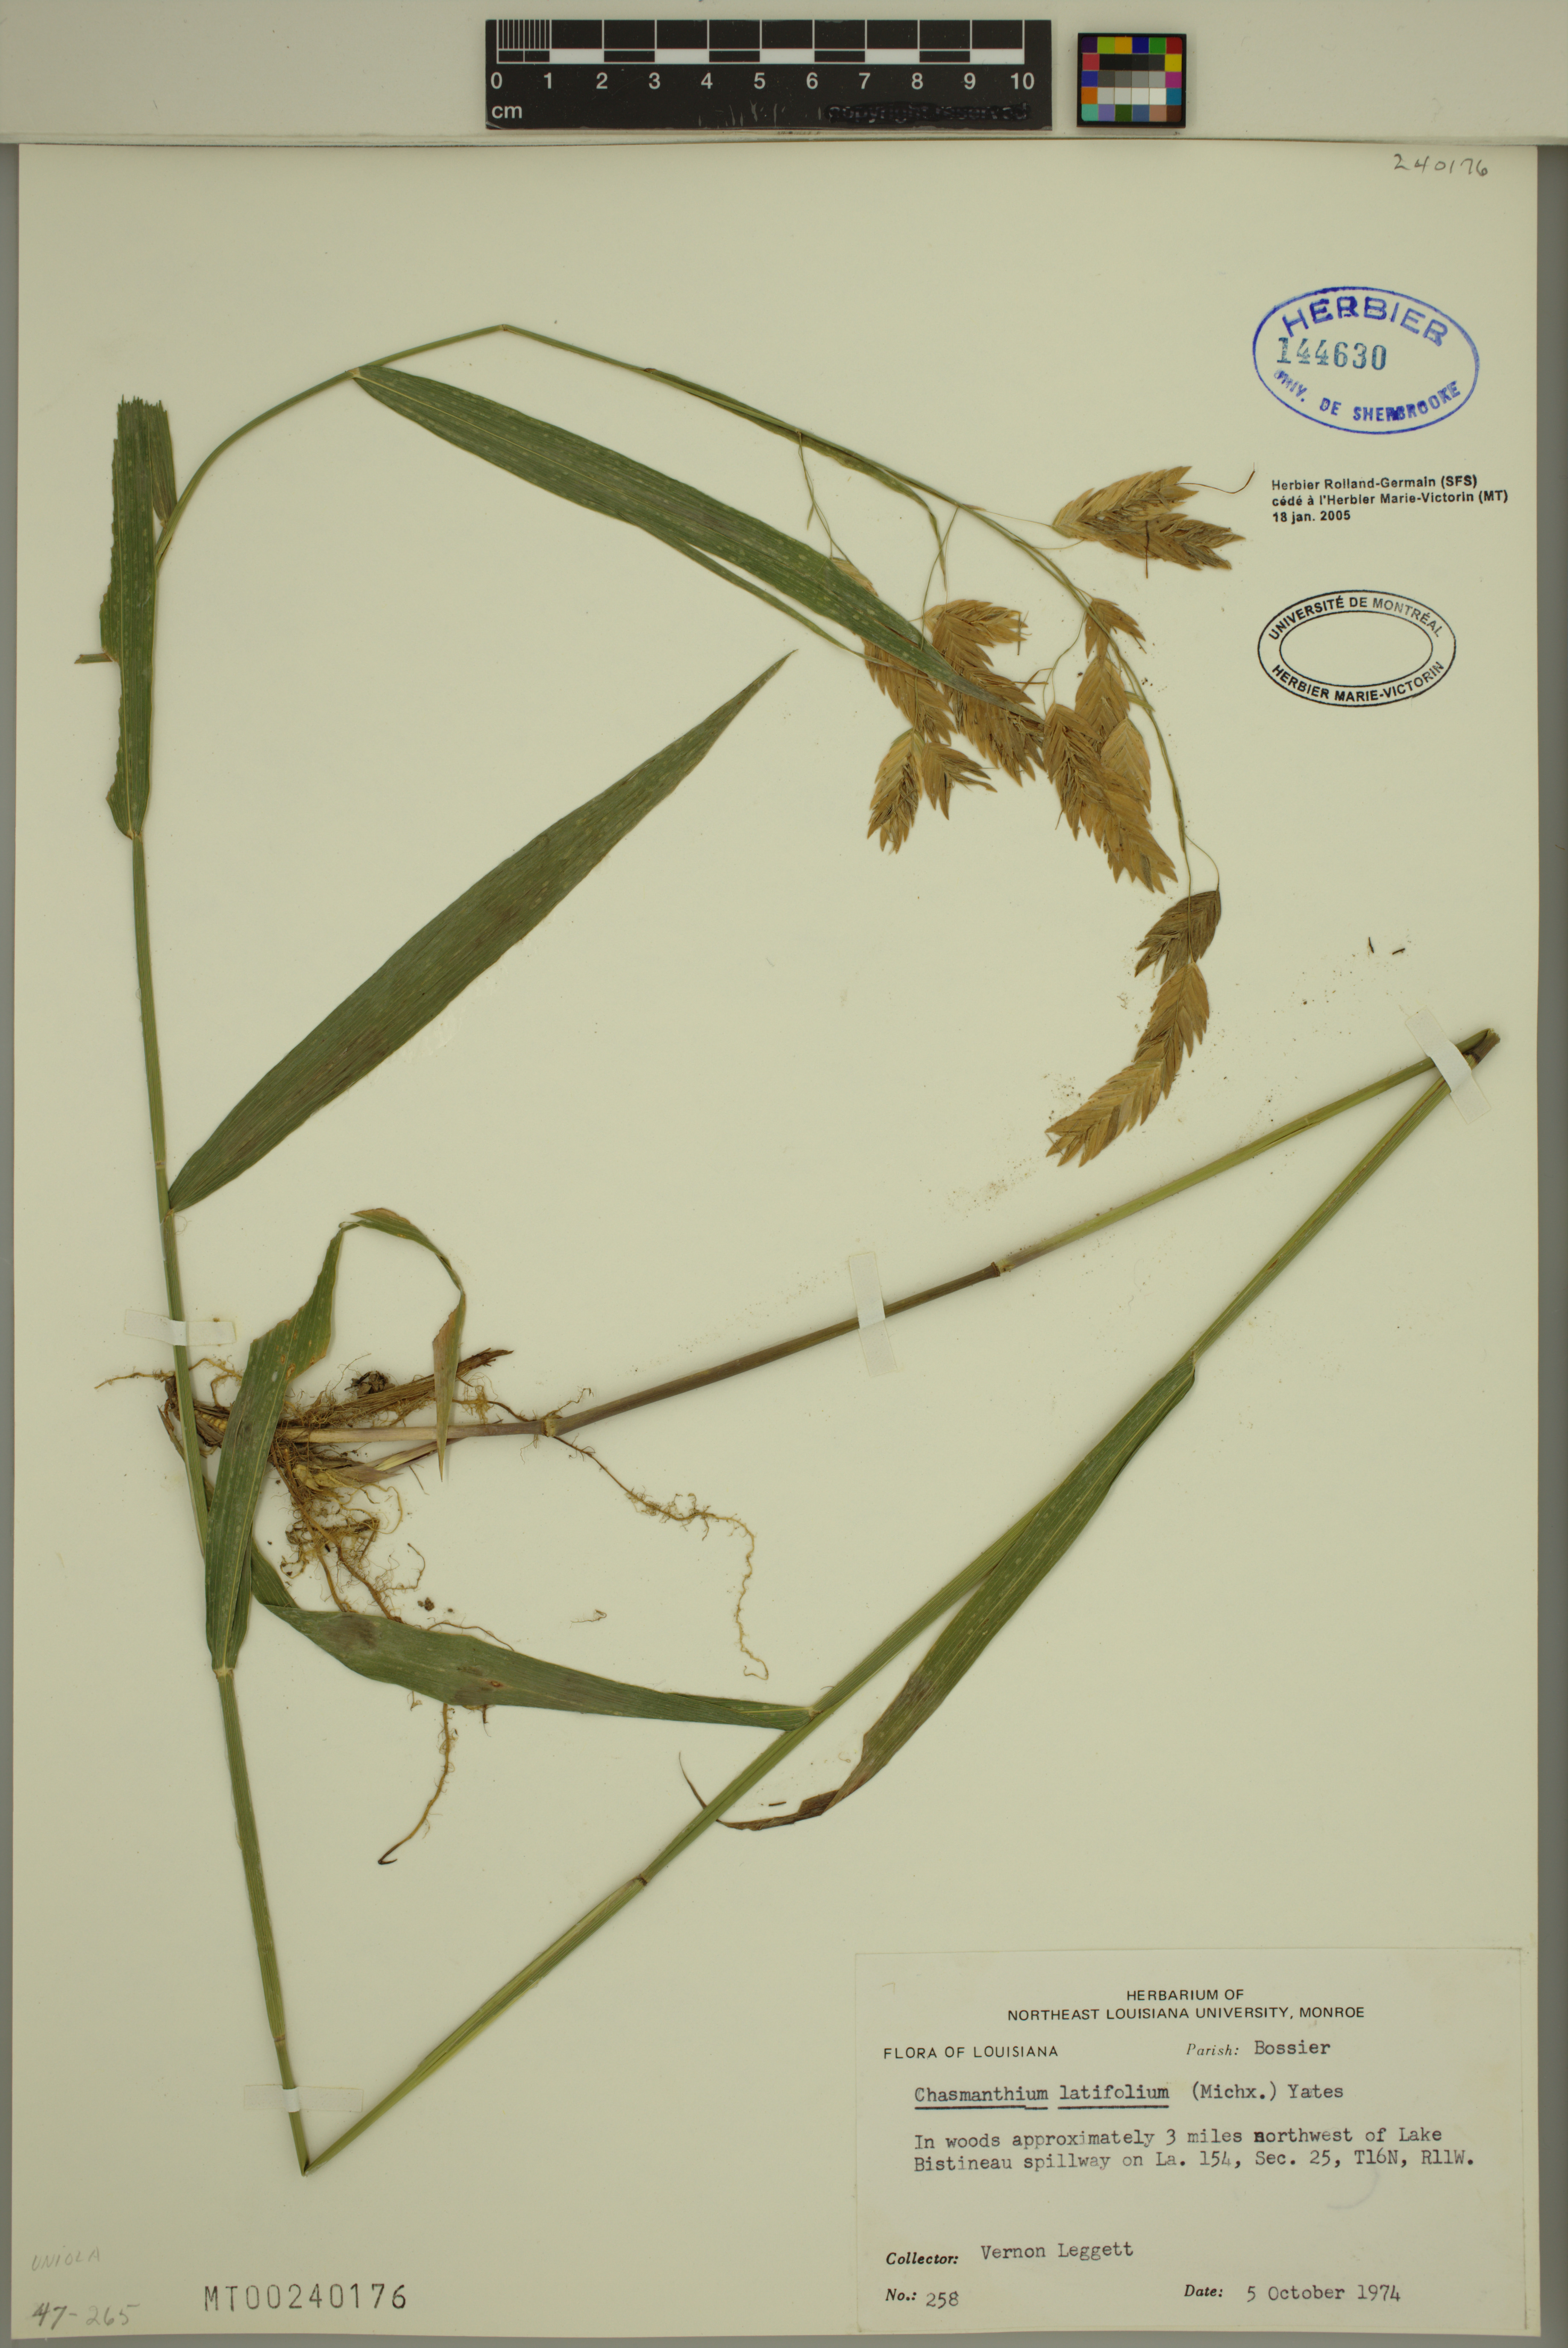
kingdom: Plantae
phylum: Tracheophyta
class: Liliopsida
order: Poales
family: Poaceae
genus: Chasmanthium
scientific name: Chasmanthium latifolium
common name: Broad-leaved chasmanthium
